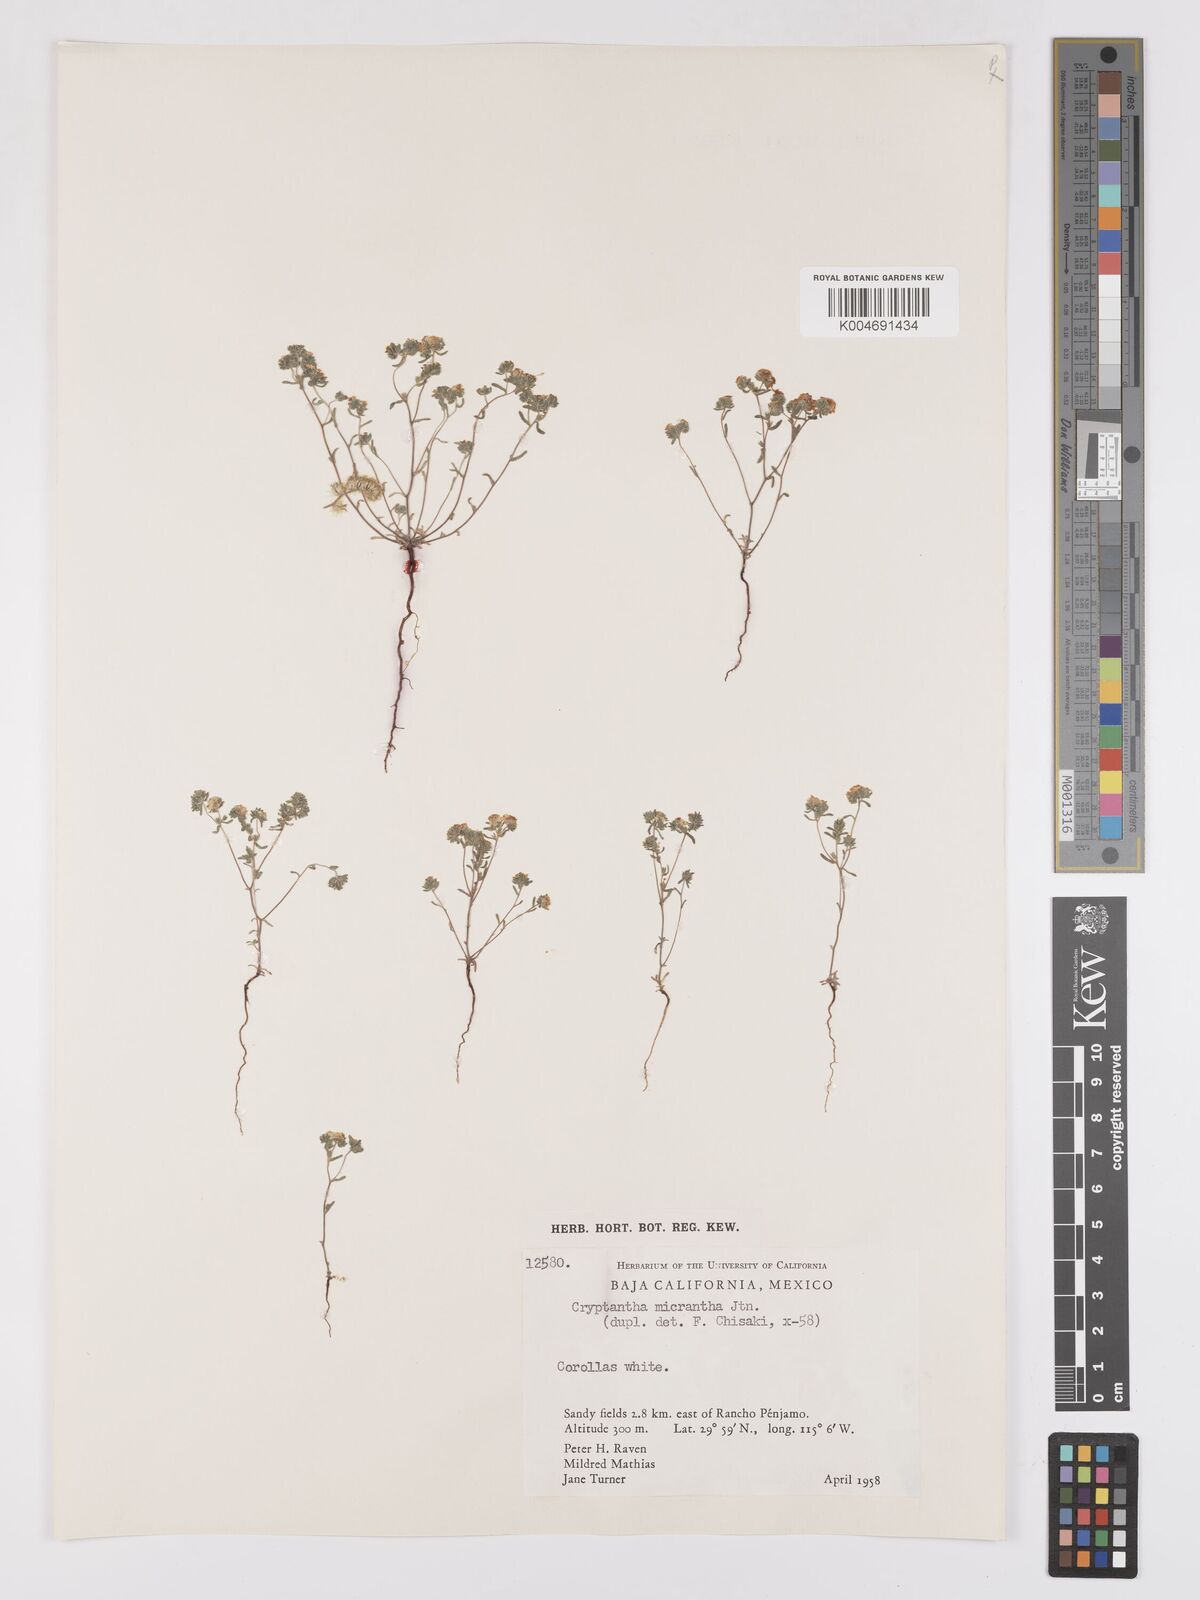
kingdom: Plantae
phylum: Tracheophyta
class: Magnoliopsida
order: Boraginales
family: Boraginaceae
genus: Eremocarya
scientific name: Eremocarya micrantha
